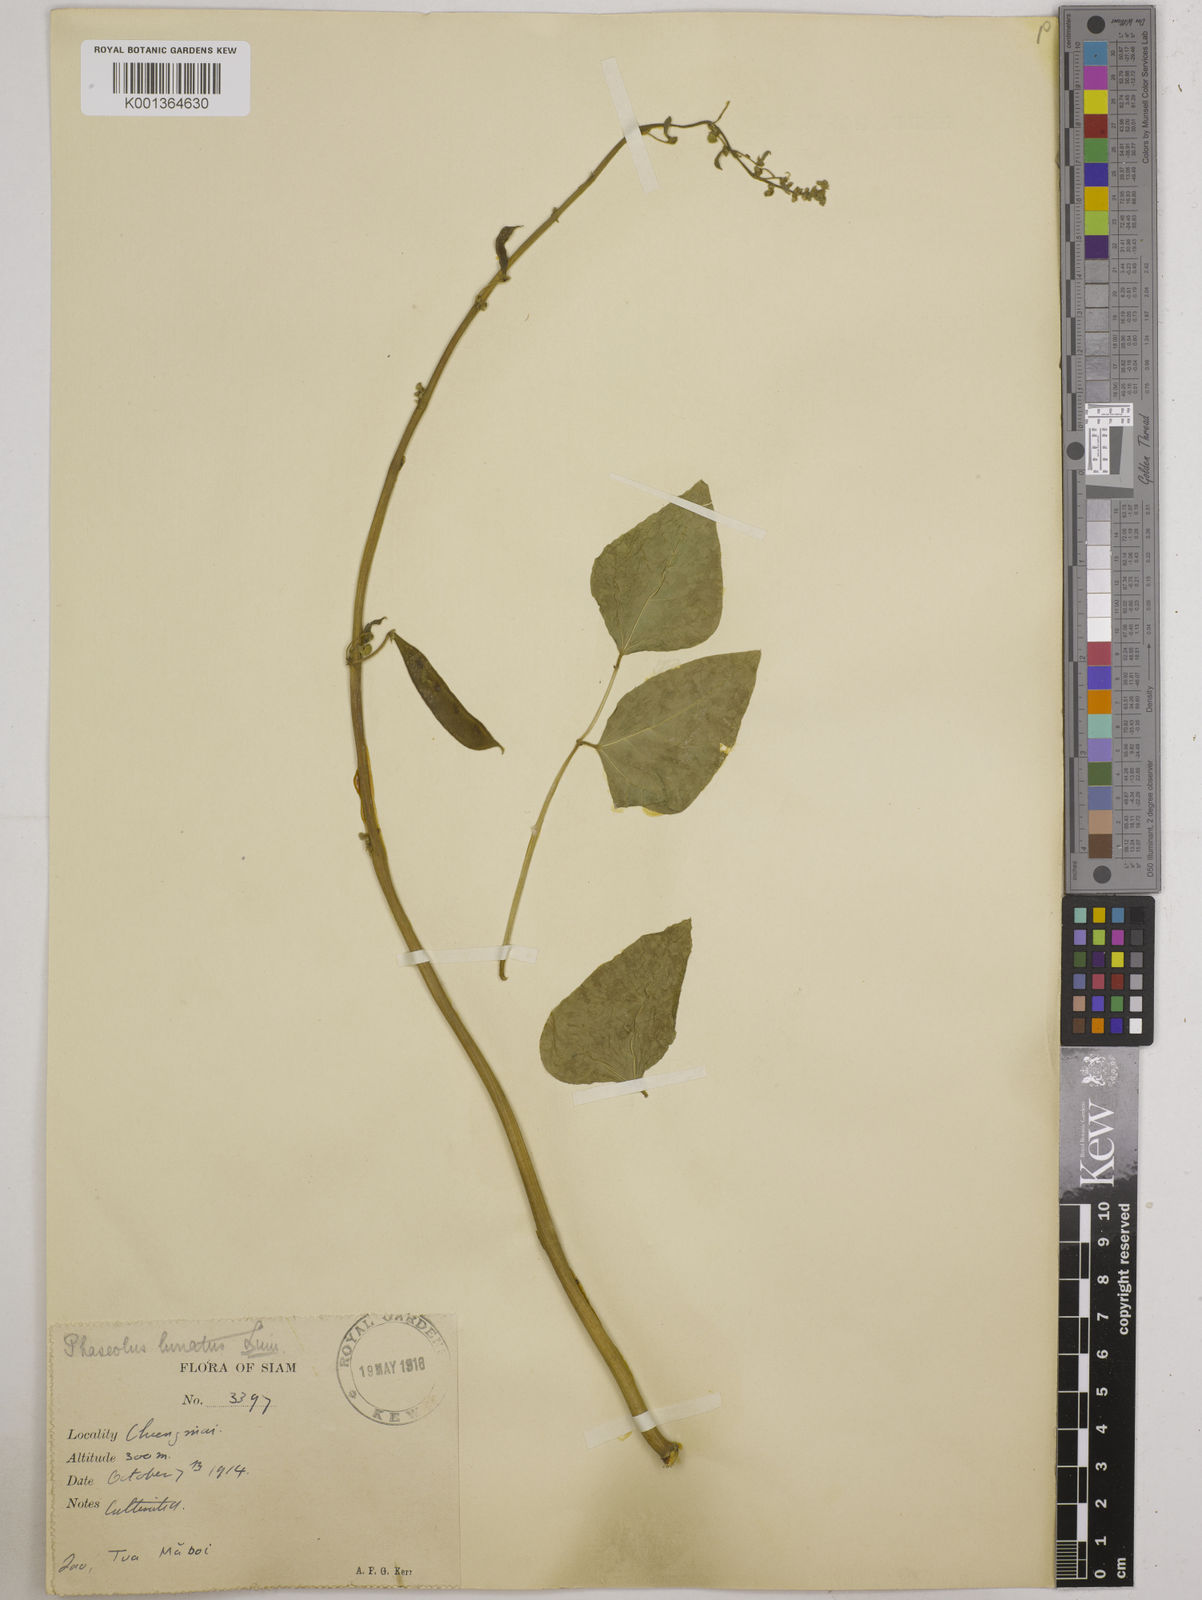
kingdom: Plantae
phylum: Tracheophyta
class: Magnoliopsida
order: Fabales
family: Fabaceae
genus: Phaseolus
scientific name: Phaseolus lunatus
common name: Sieva bean
